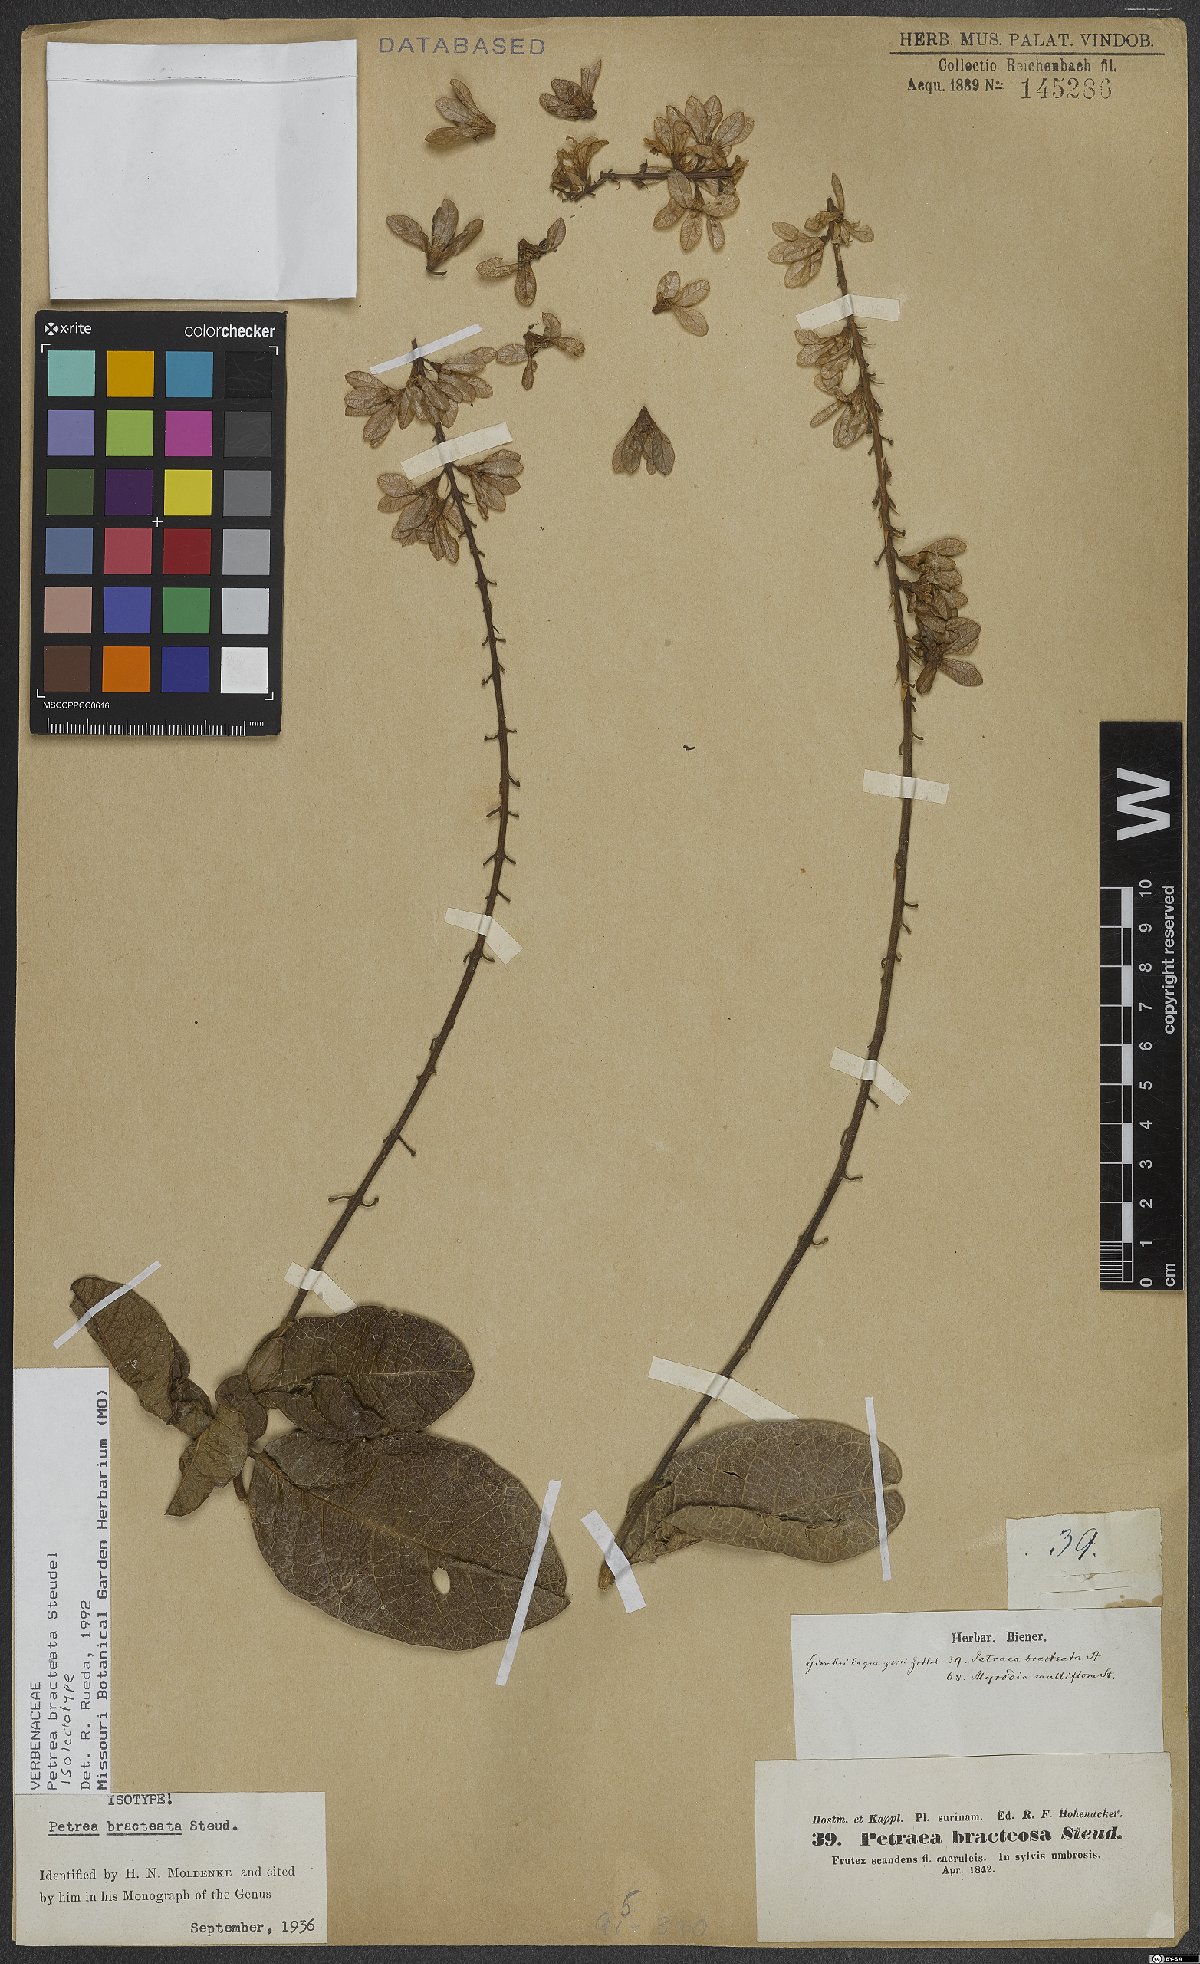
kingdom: Plantae
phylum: Tracheophyta
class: Magnoliopsida
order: Lamiales
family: Verbenaceae
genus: Petrea
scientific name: Petrea bracteata
